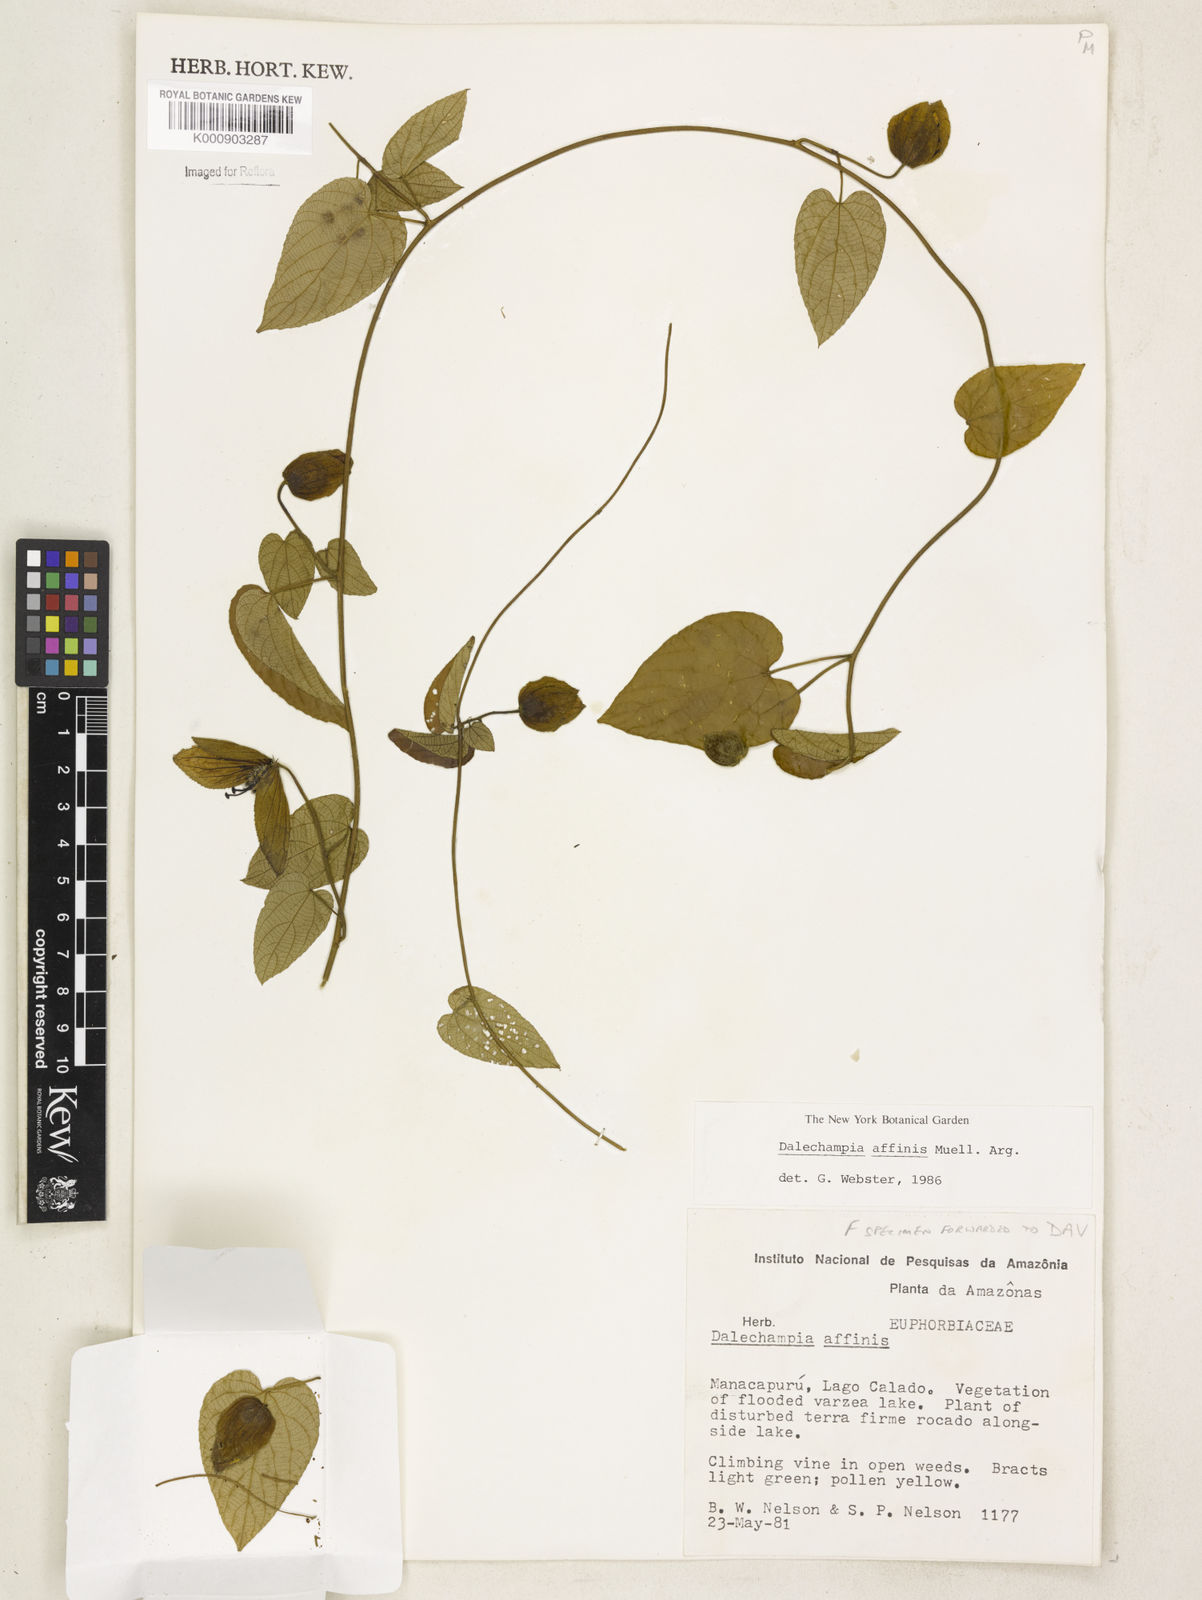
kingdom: Plantae
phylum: Tracheophyta
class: Magnoliopsida
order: Malpighiales
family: Euphorbiaceae
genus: Dalechampia
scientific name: Dalechampia
